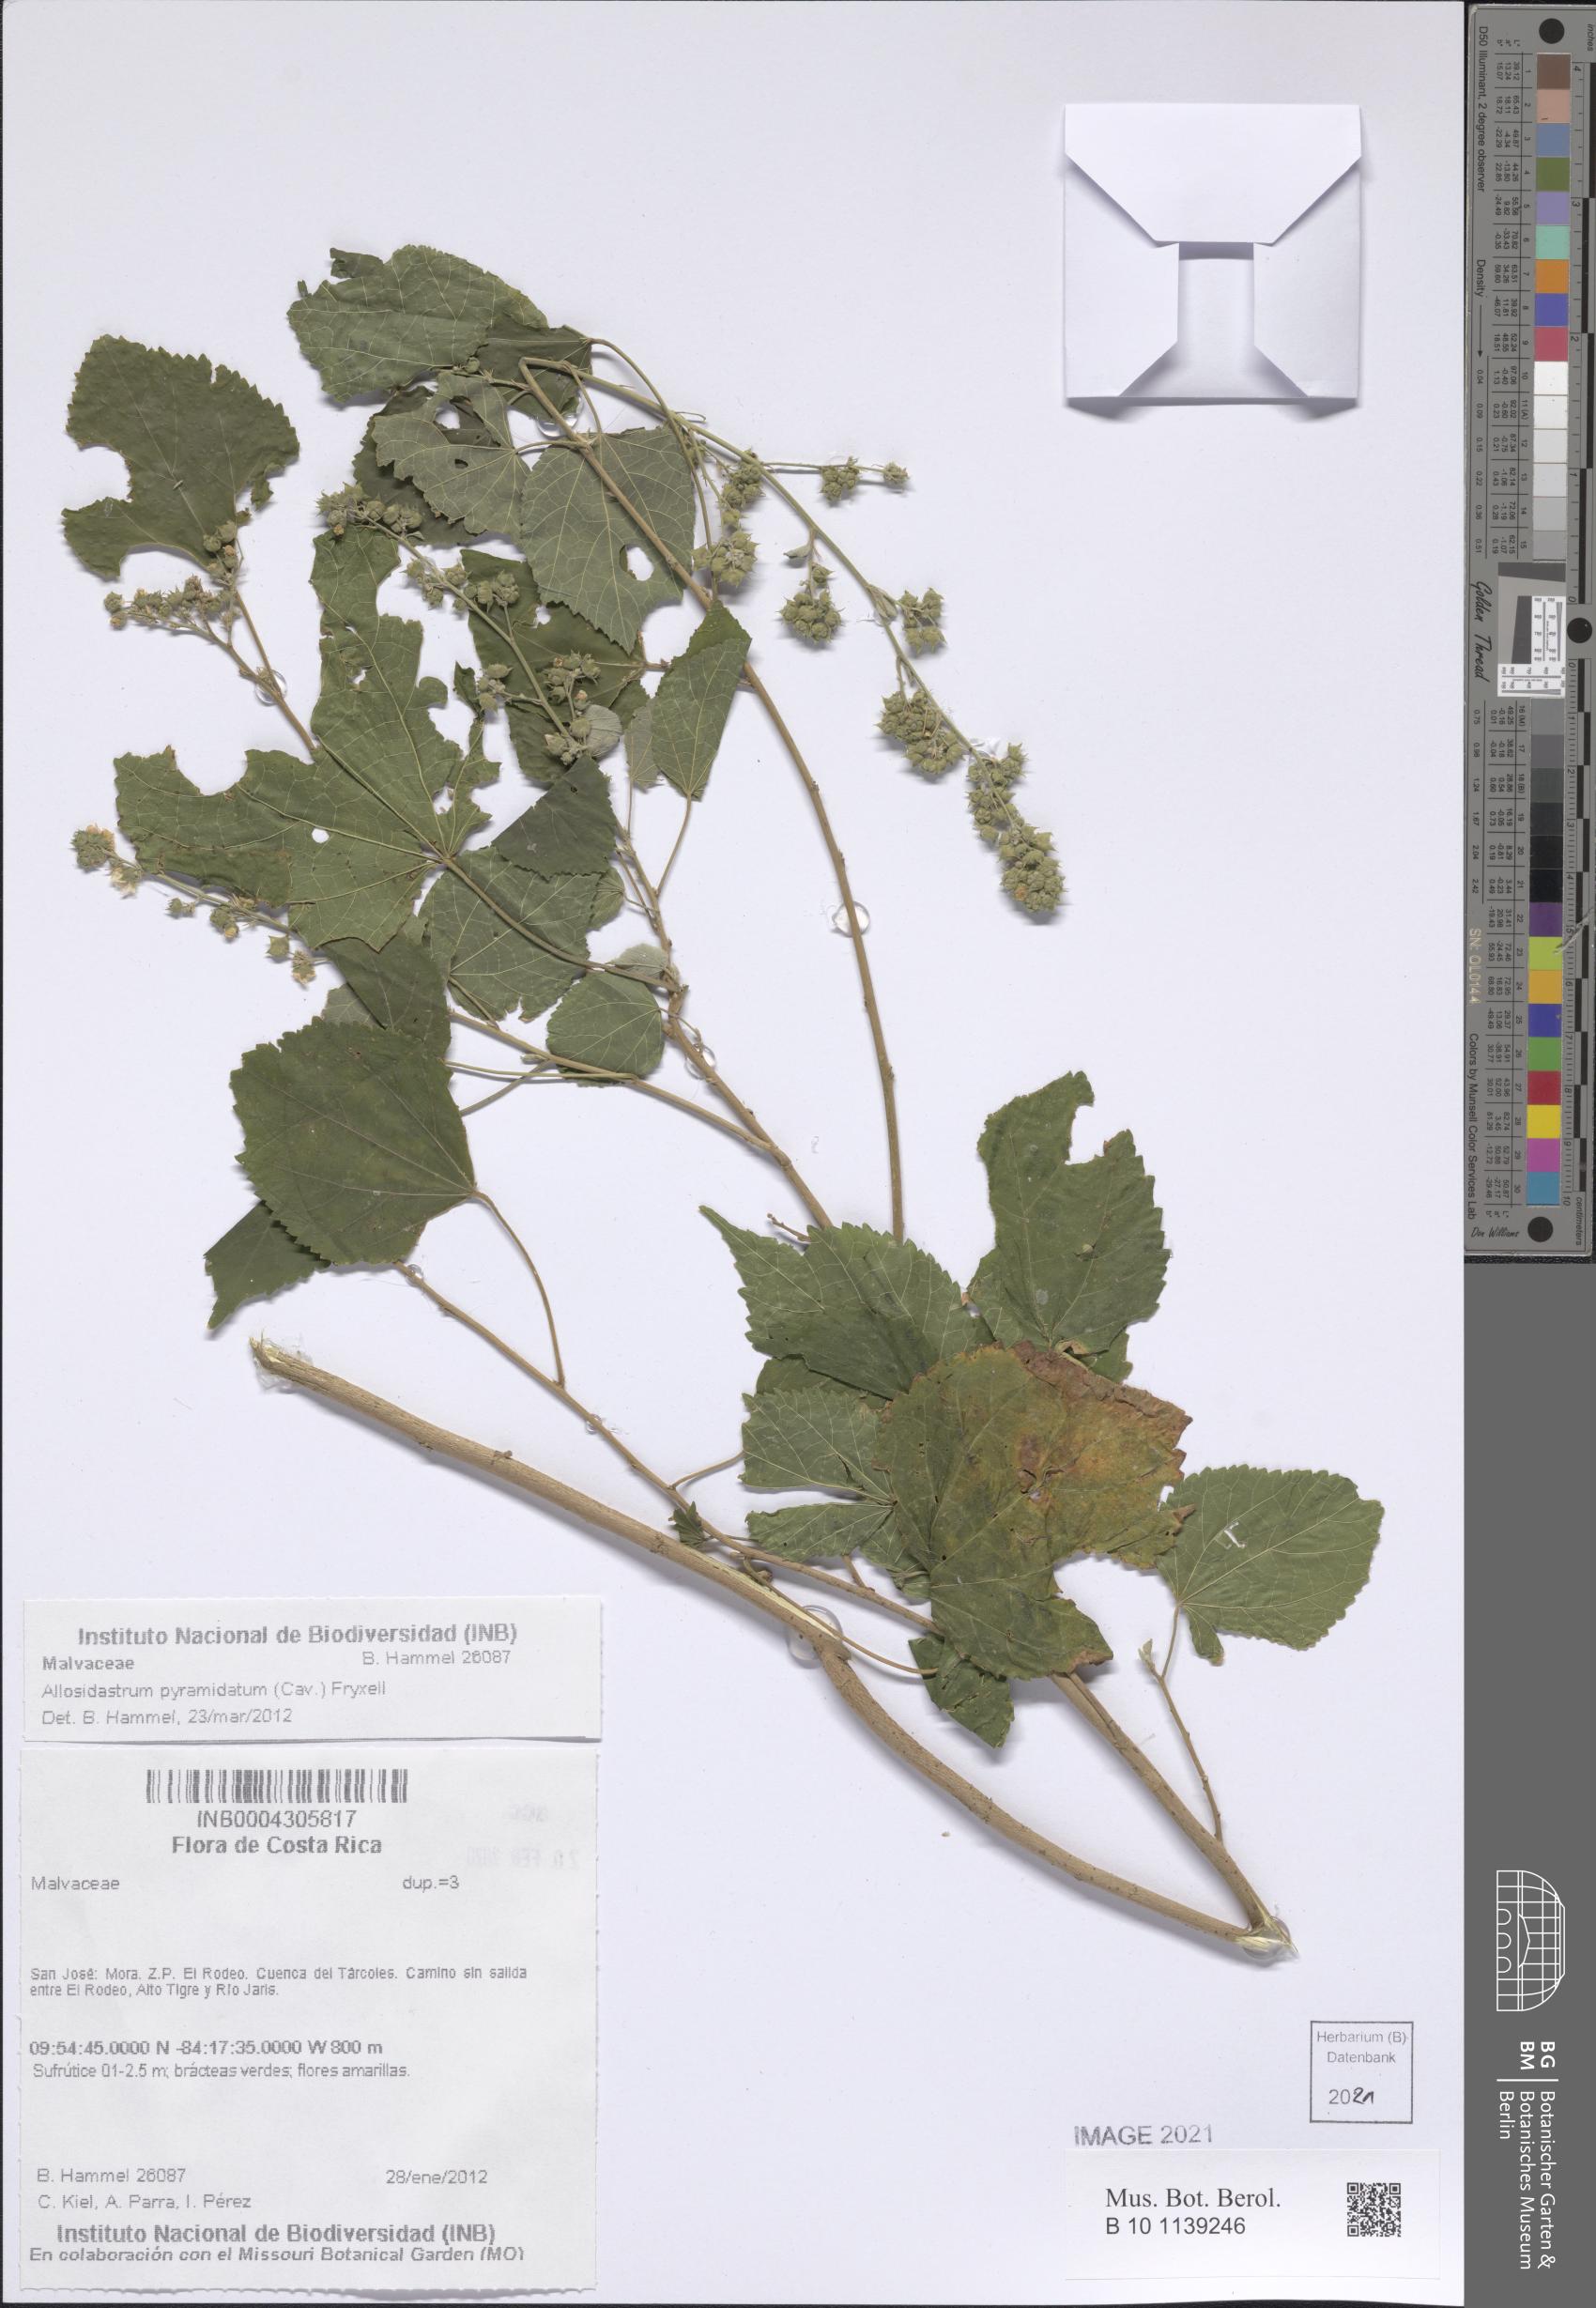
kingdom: Plantae
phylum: Tracheophyta
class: Magnoliopsida
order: Malvales
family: Malvaceae
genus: Allosidastrum
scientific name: Allosidastrum pyramidatum
